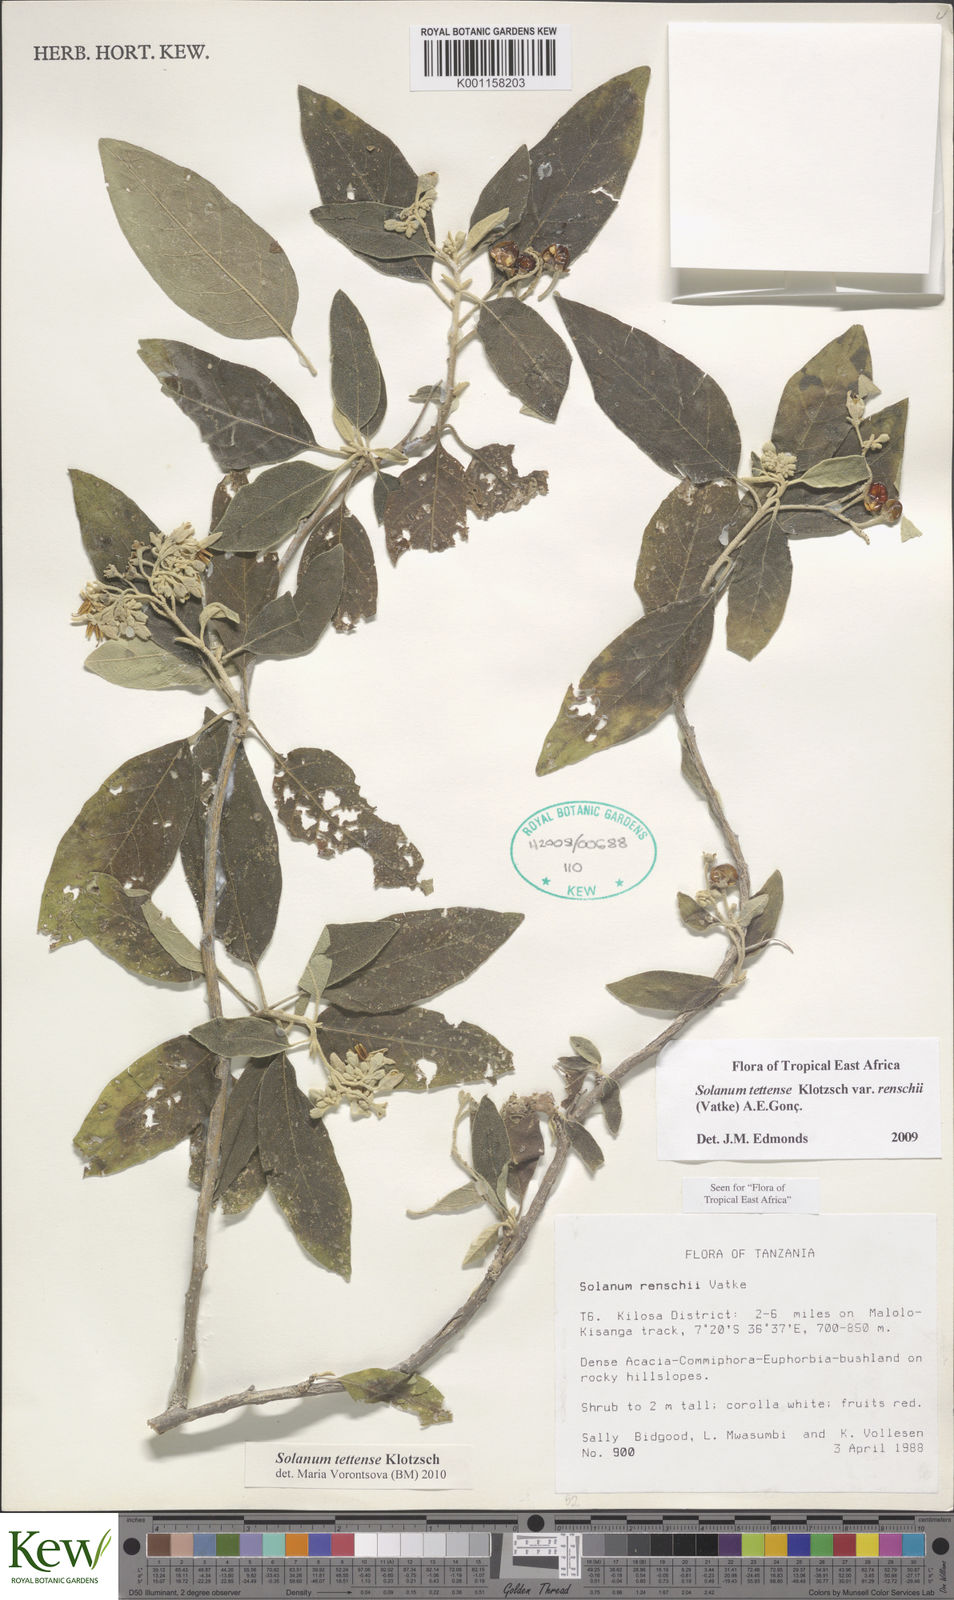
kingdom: Plantae
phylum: Tracheophyta
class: Magnoliopsida
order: Solanales
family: Solanaceae
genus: Solanum
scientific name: Solanum tettense
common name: Mozambique bitter apple
